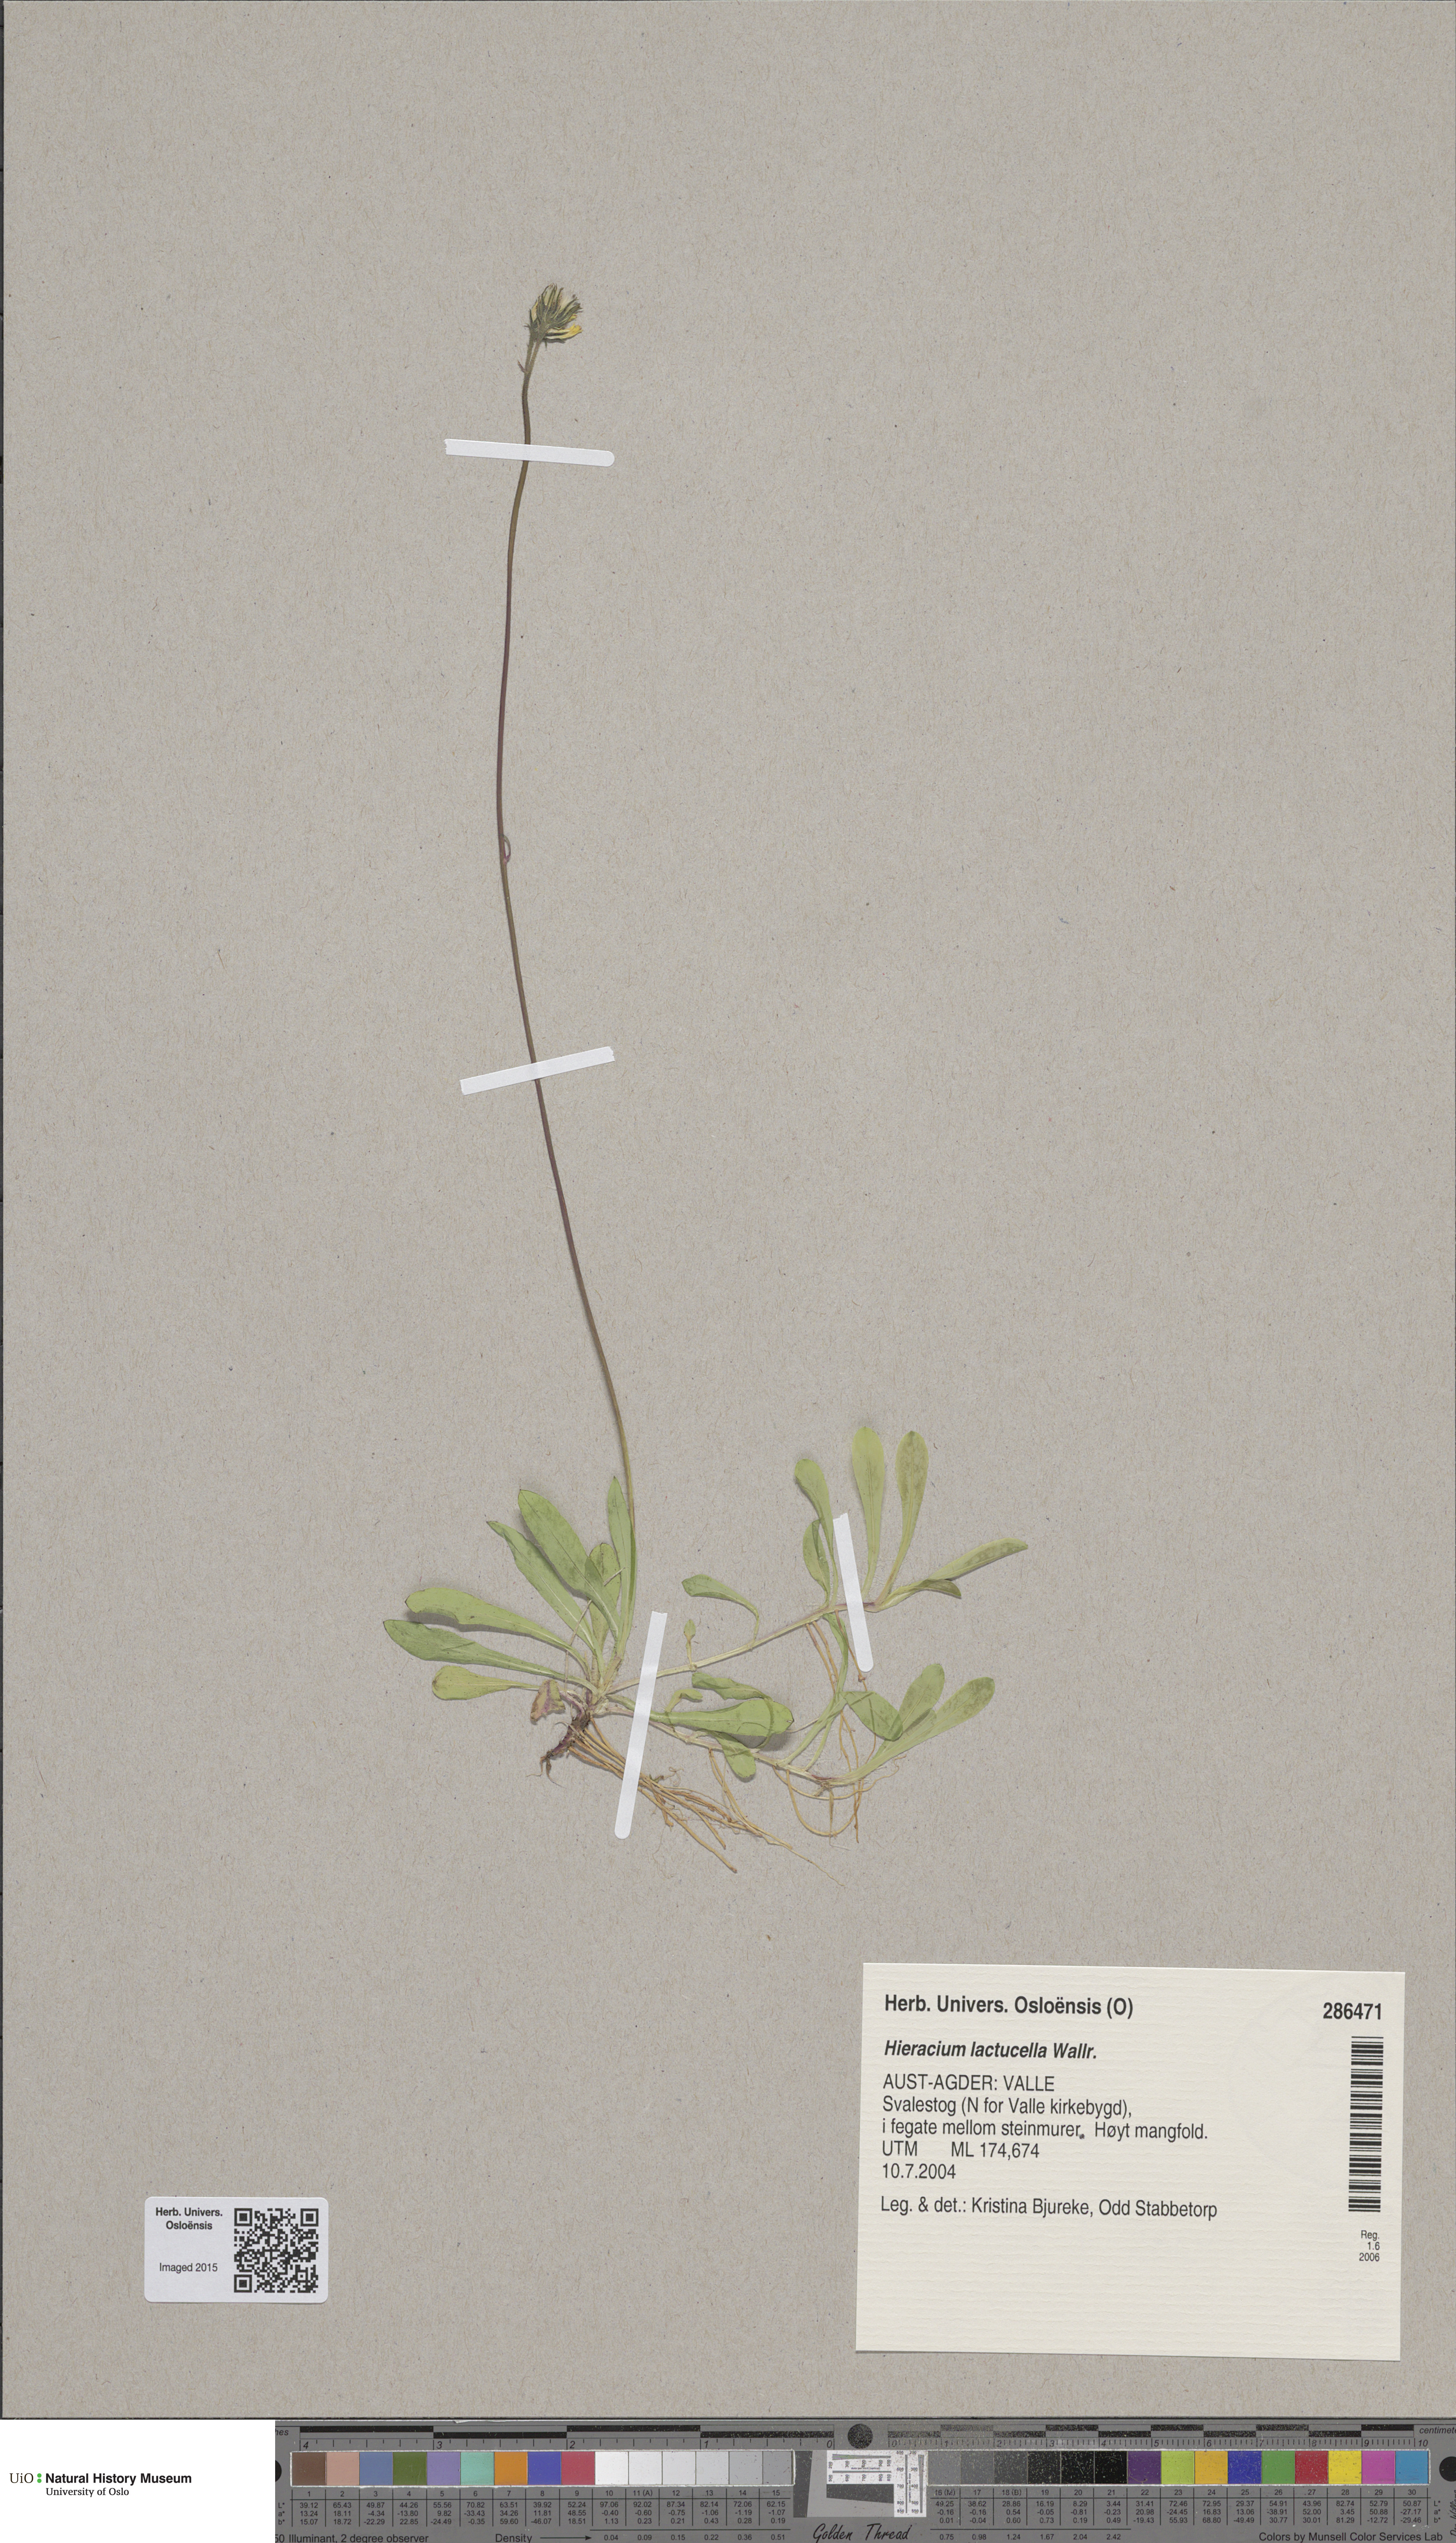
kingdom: Plantae
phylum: Tracheophyta
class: Magnoliopsida
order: Asterales
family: Asteraceae
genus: Pilosella
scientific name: Pilosella lactucella
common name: Glaucous fox-and-cubs
